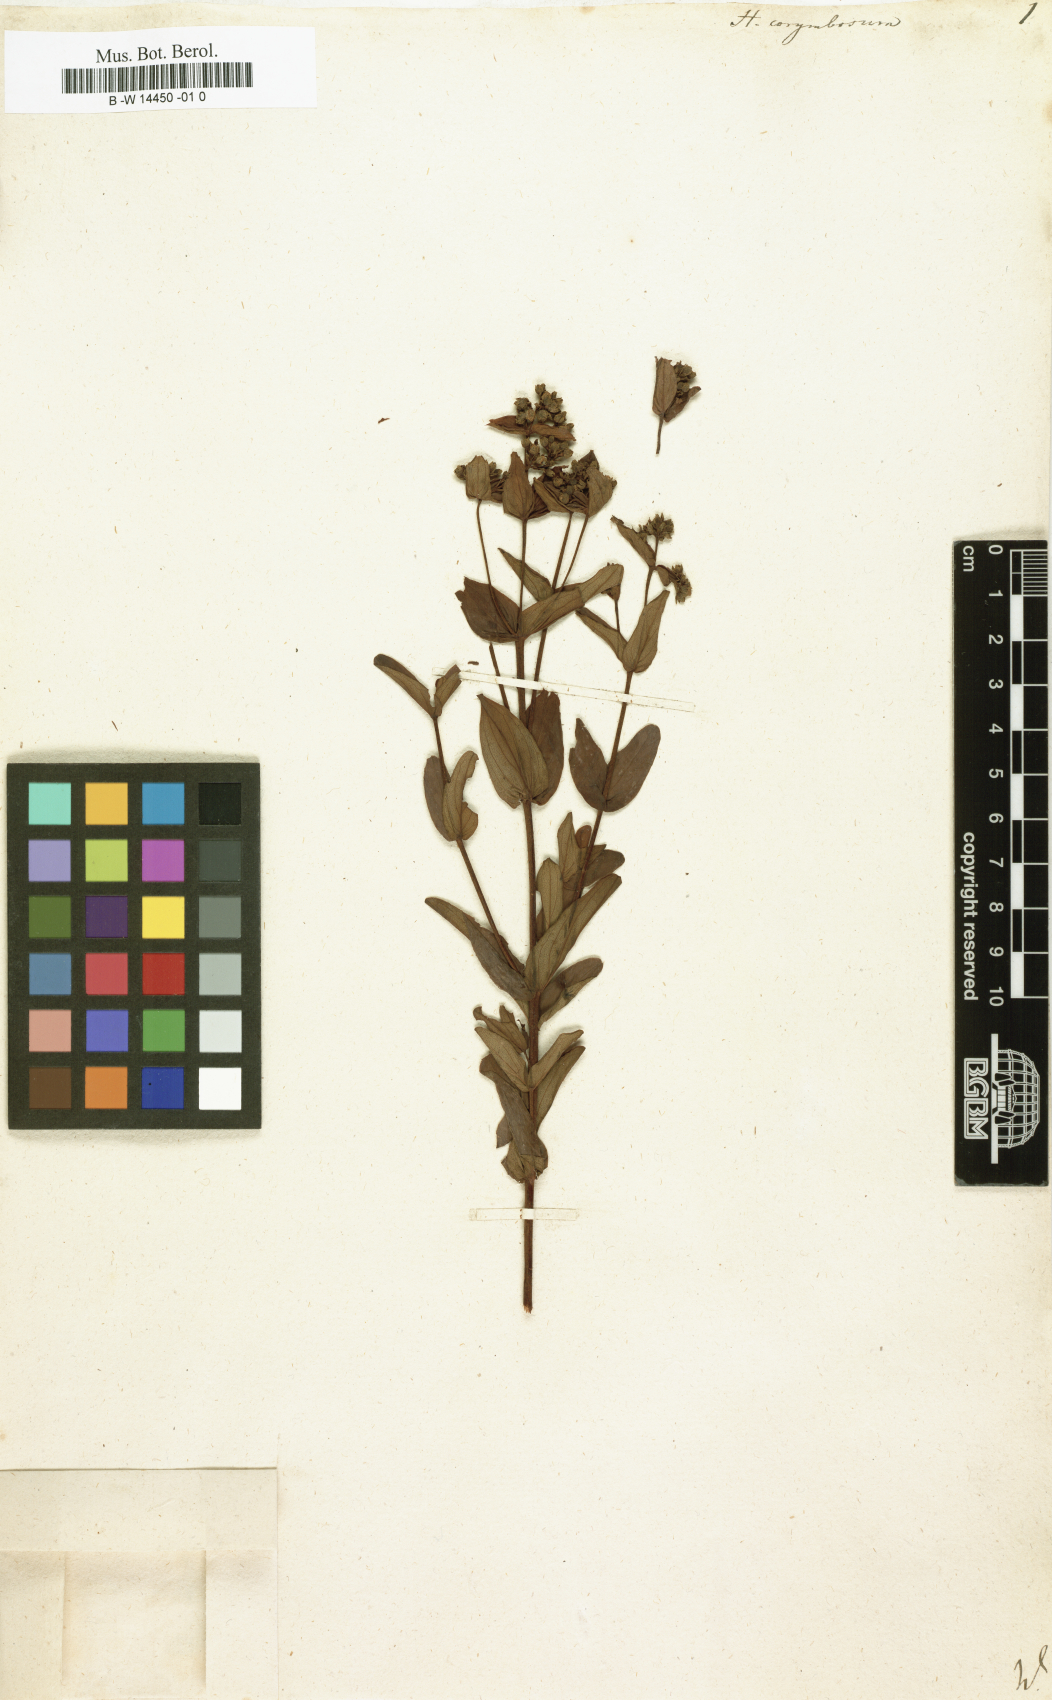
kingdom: Plantae
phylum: Tracheophyta
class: Magnoliopsida
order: Malpighiales
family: Hypericaceae
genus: Hypericum
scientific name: Hypericum
